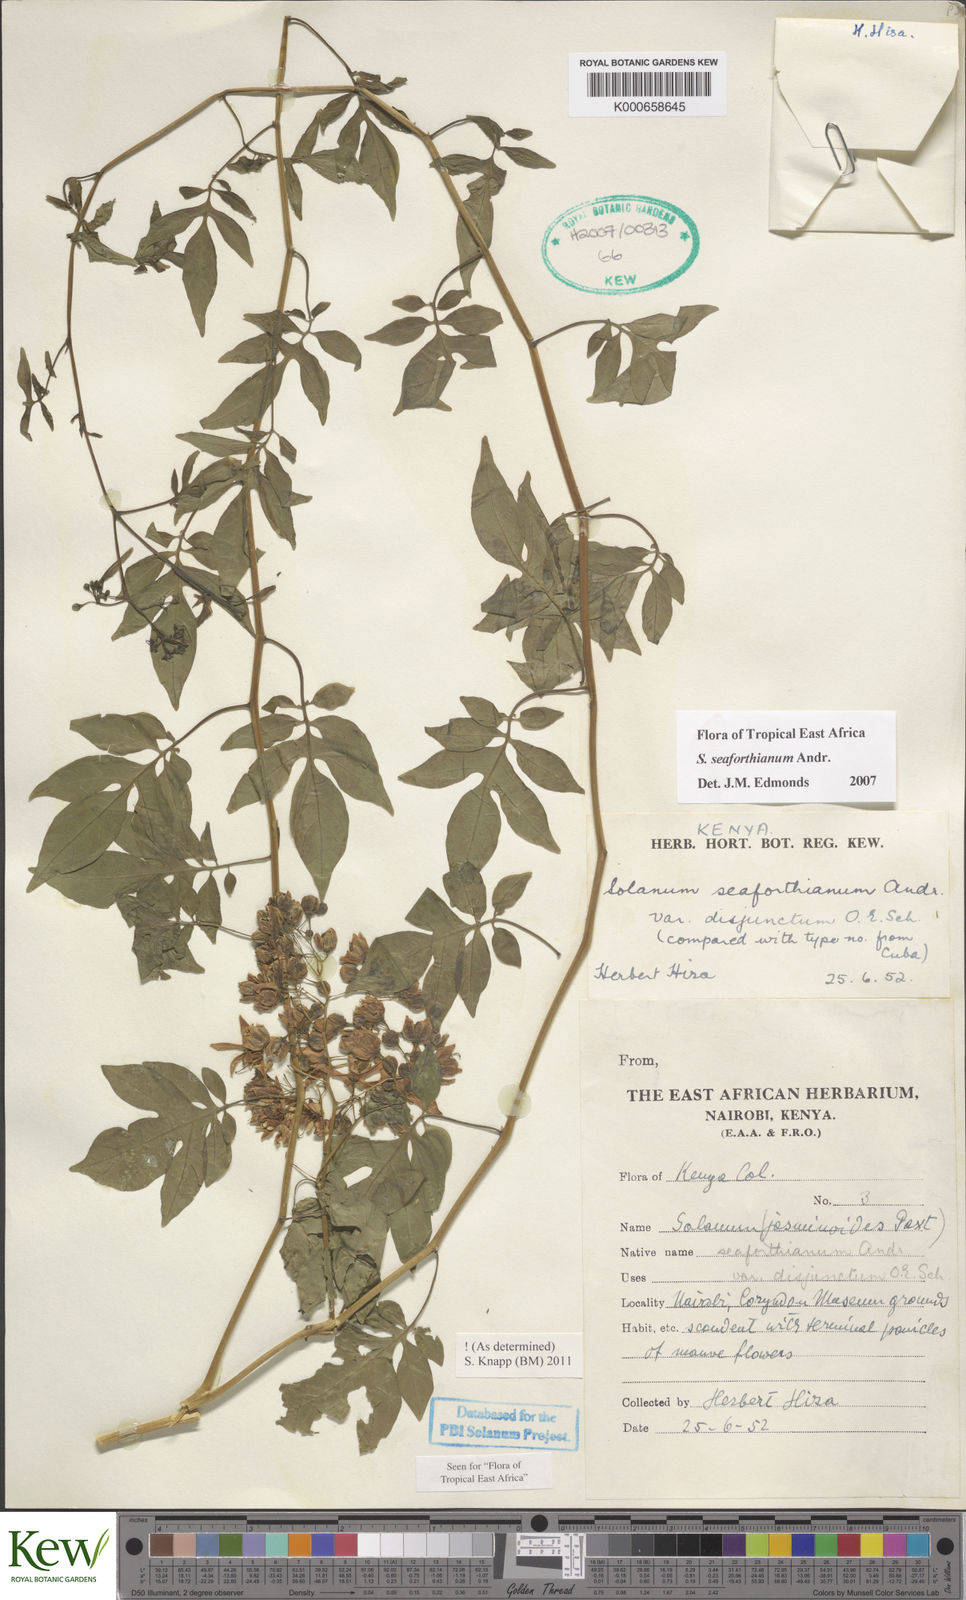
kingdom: Plantae
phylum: Tracheophyta
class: Magnoliopsida
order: Solanales
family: Solanaceae
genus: Solanum
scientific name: Solanum seaforthianum
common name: Brazilian nightshade
